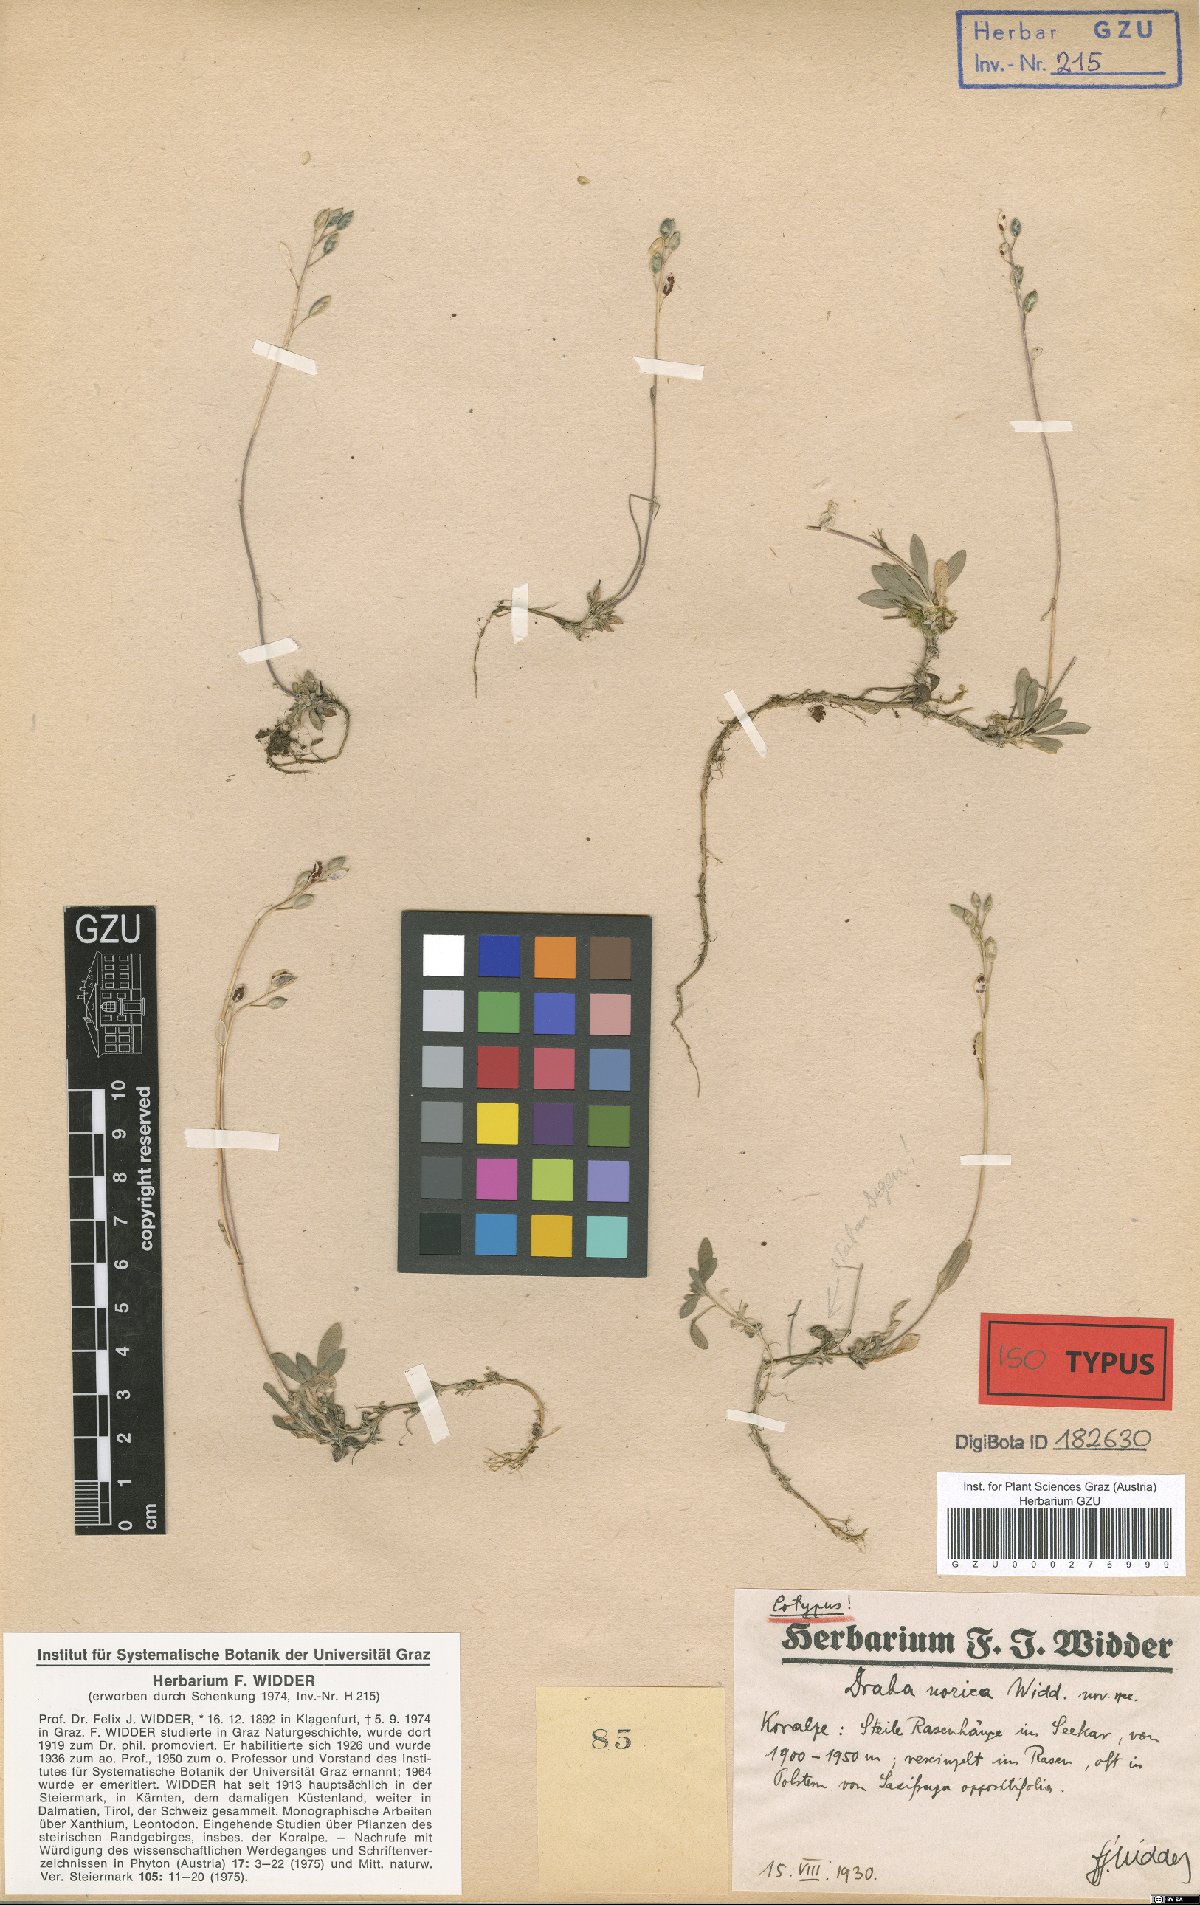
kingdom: Plantae
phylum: Tracheophyta
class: Magnoliopsida
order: Brassicales
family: Brassicaceae
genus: Draba
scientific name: Draba pacheri
